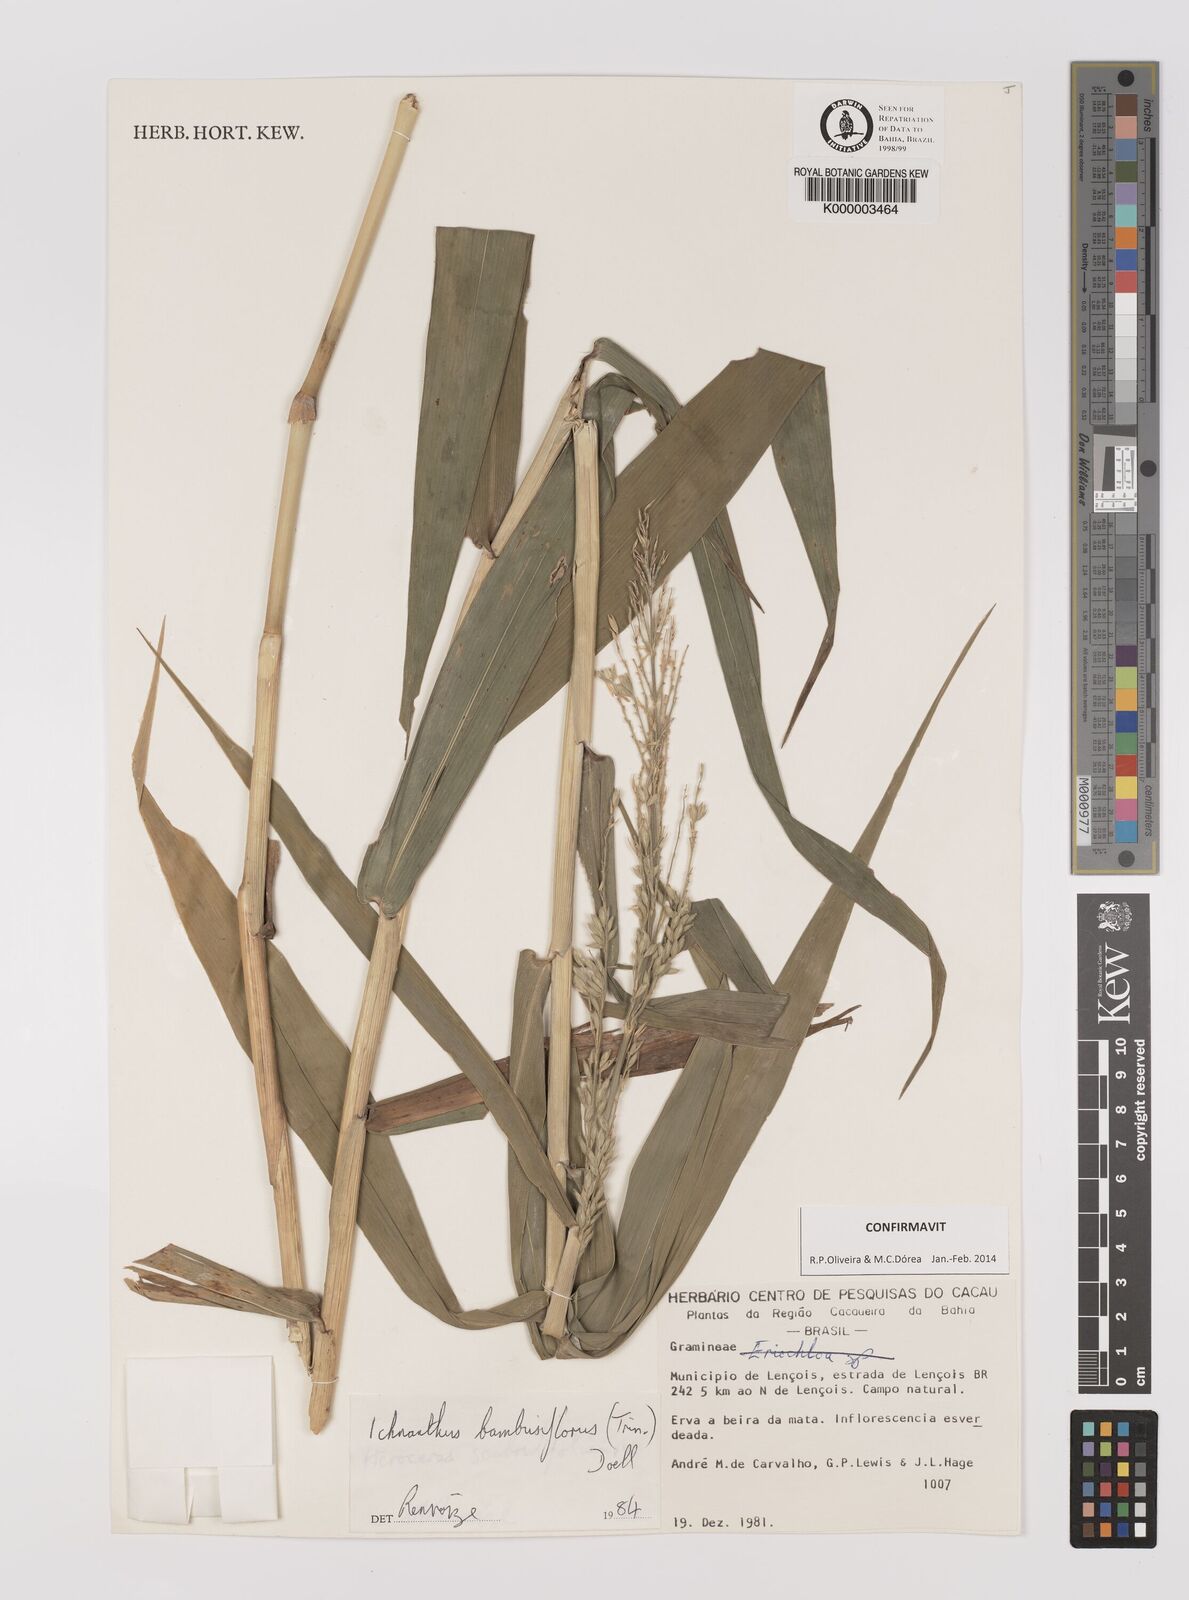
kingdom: Plantae
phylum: Tracheophyta
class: Liliopsida
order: Poales
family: Poaceae
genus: Ichnanthus
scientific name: Ichnanthus
